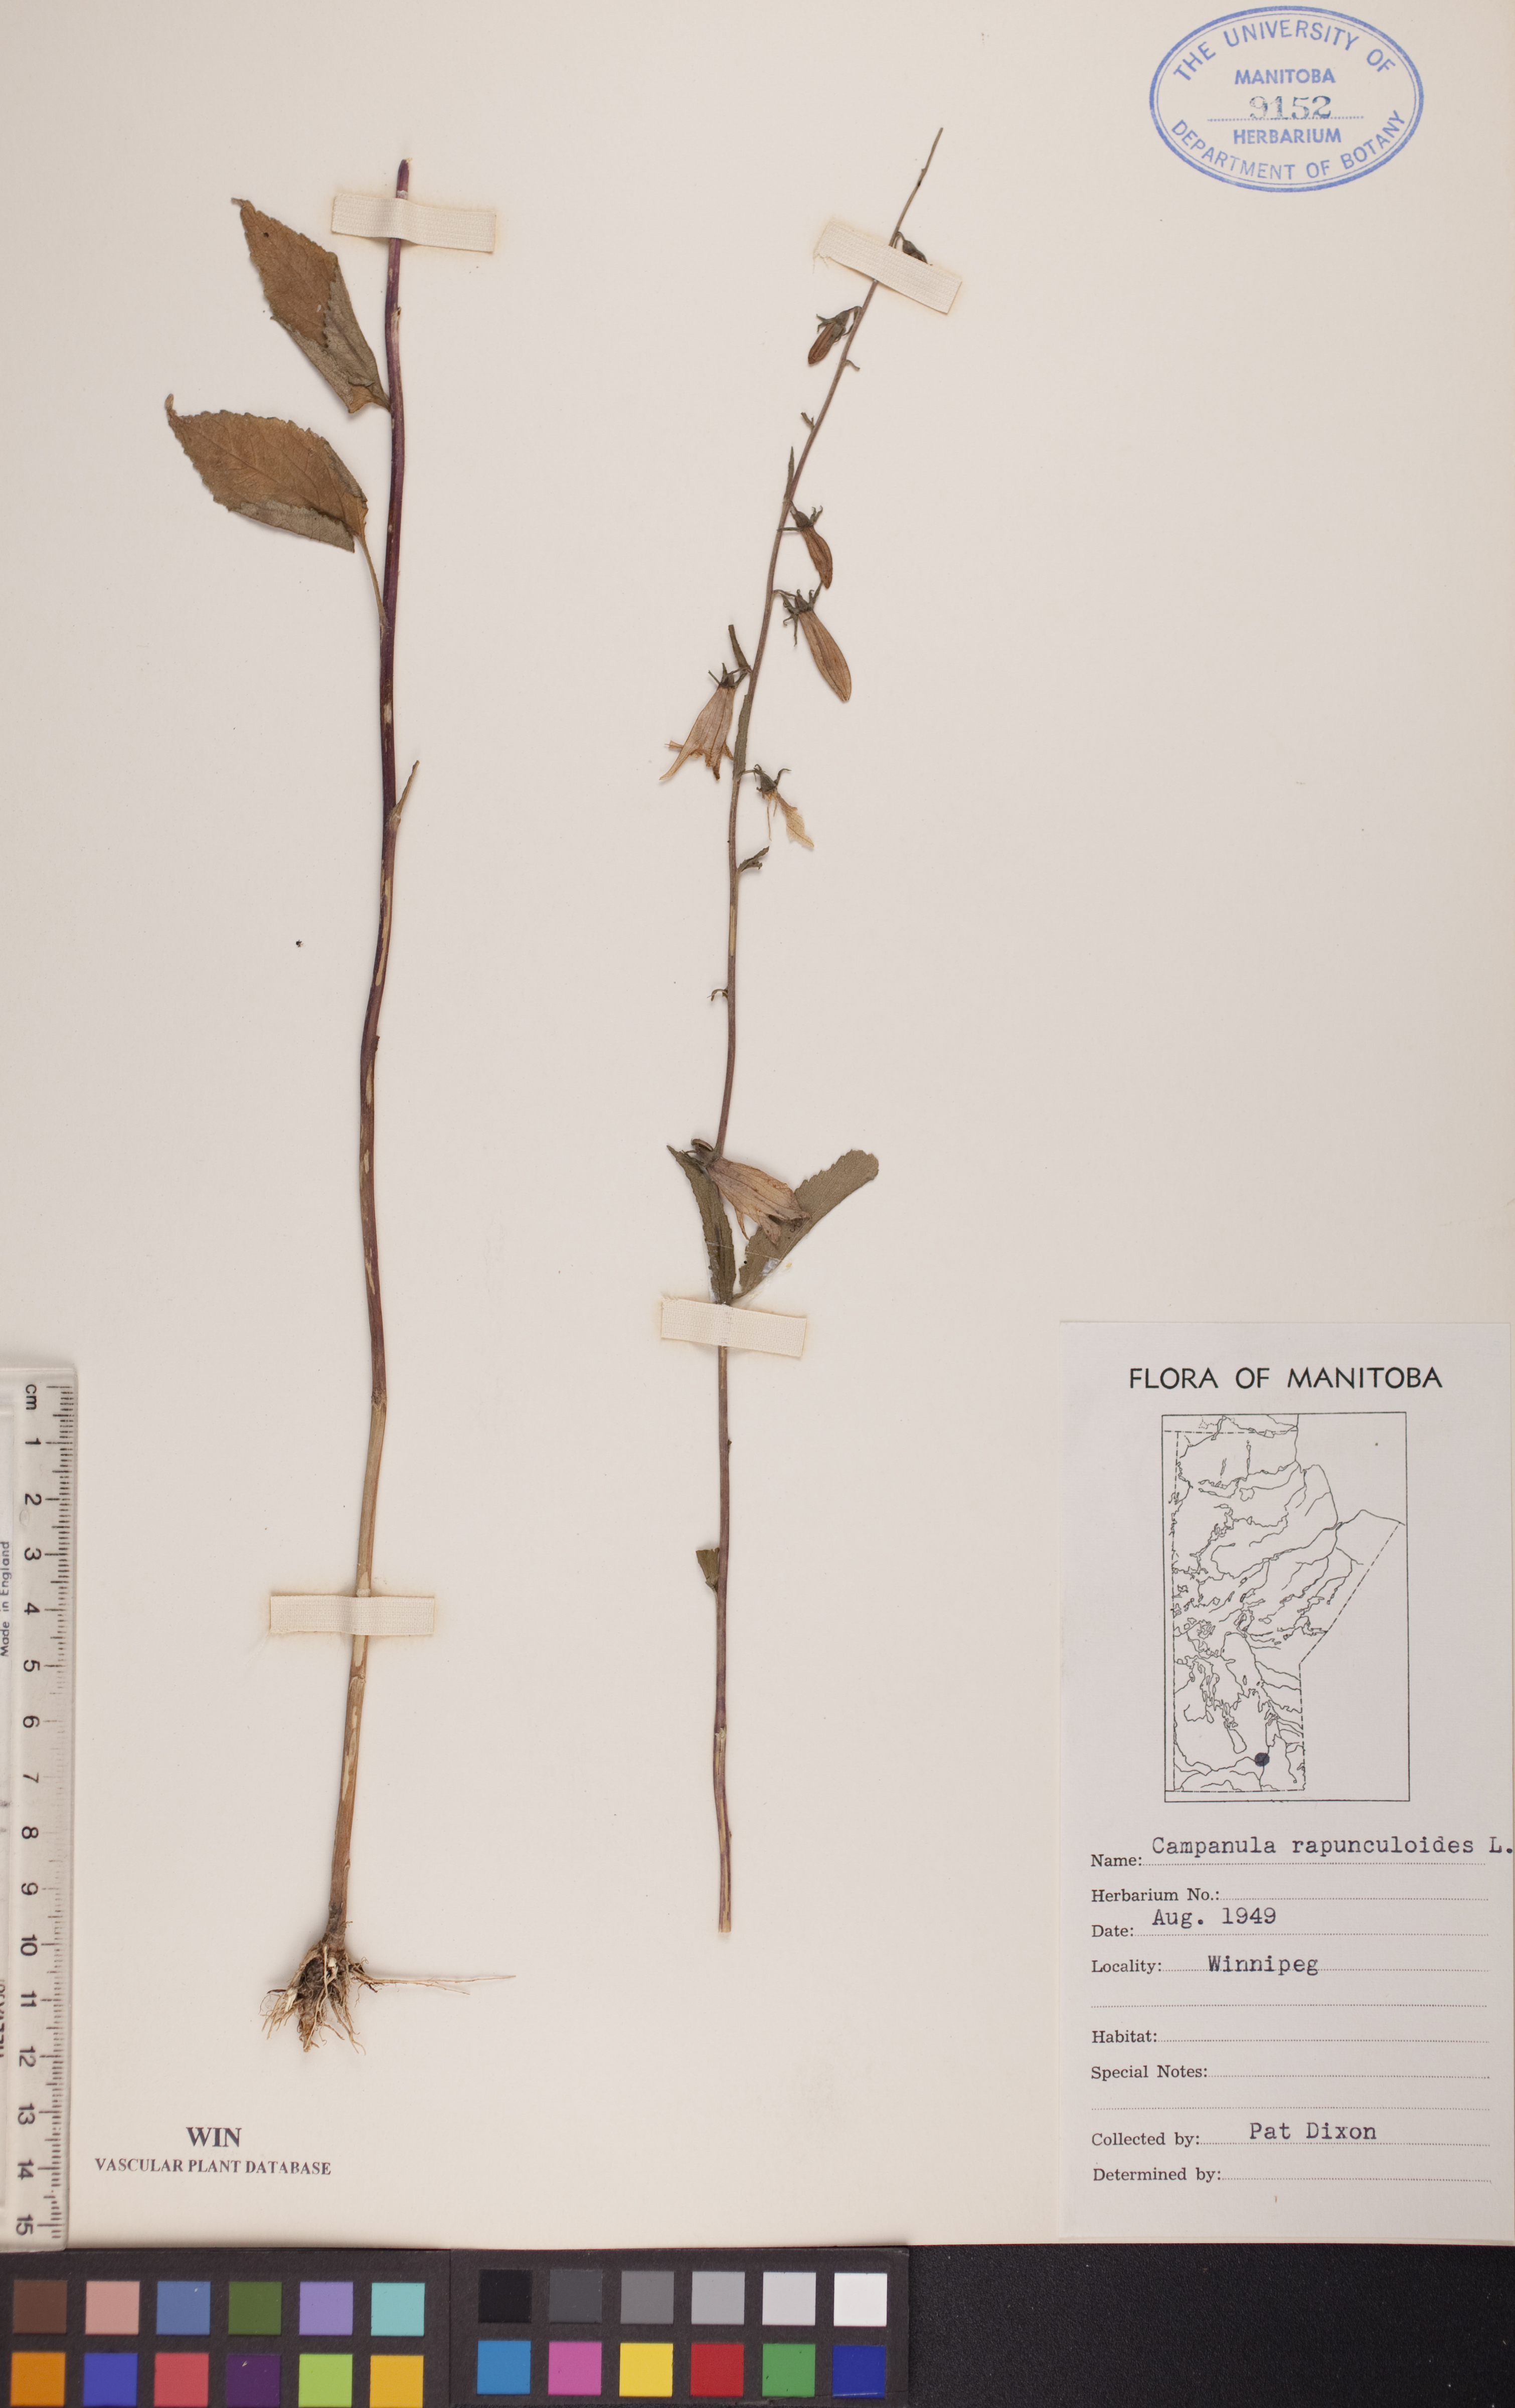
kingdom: Plantae
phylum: Tracheophyta
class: Magnoliopsida
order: Asterales
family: Campanulaceae
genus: Campanula
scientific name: Campanula rapunculoides
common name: Creeping bellflower
